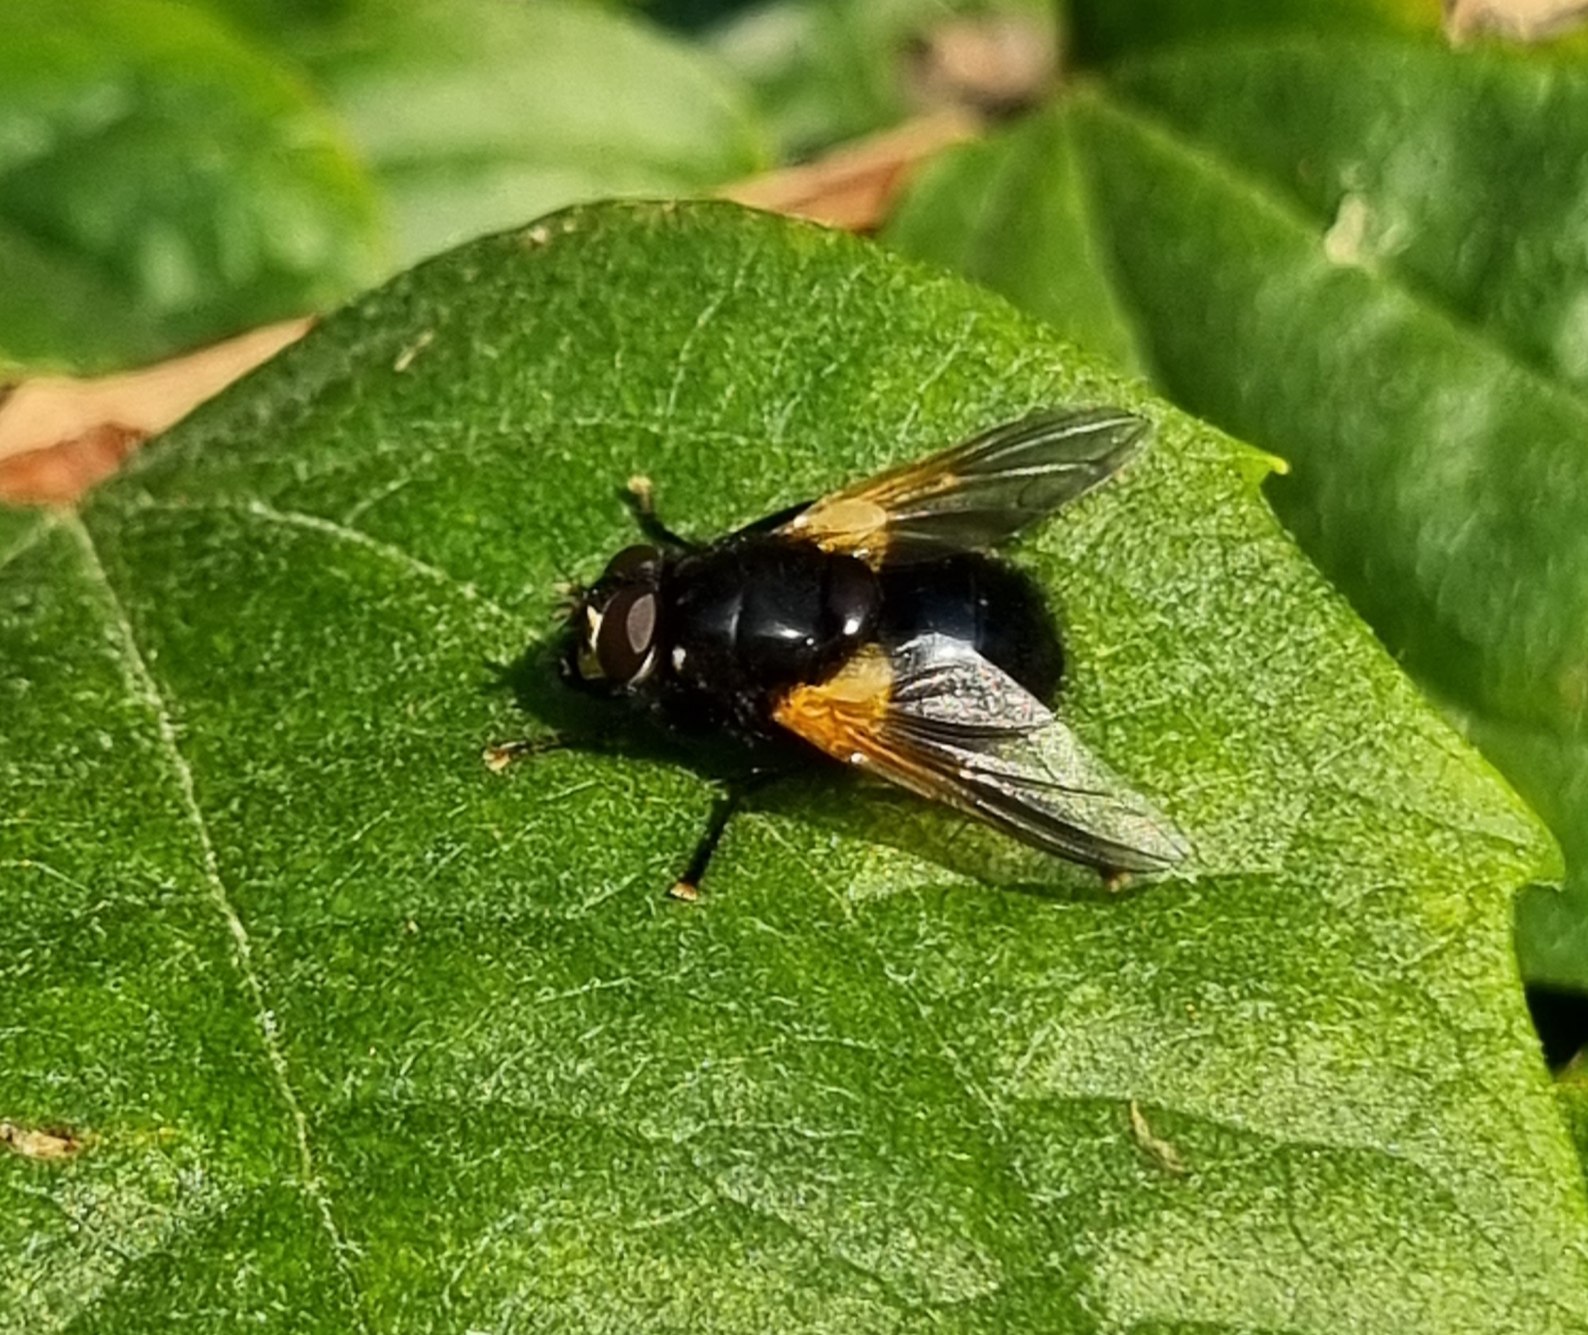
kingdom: Animalia
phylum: Arthropoda
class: Insecta
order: Diptera
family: Muscidae
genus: Mesembrina
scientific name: Mesembrina meridiana
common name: Gulvinget flue
